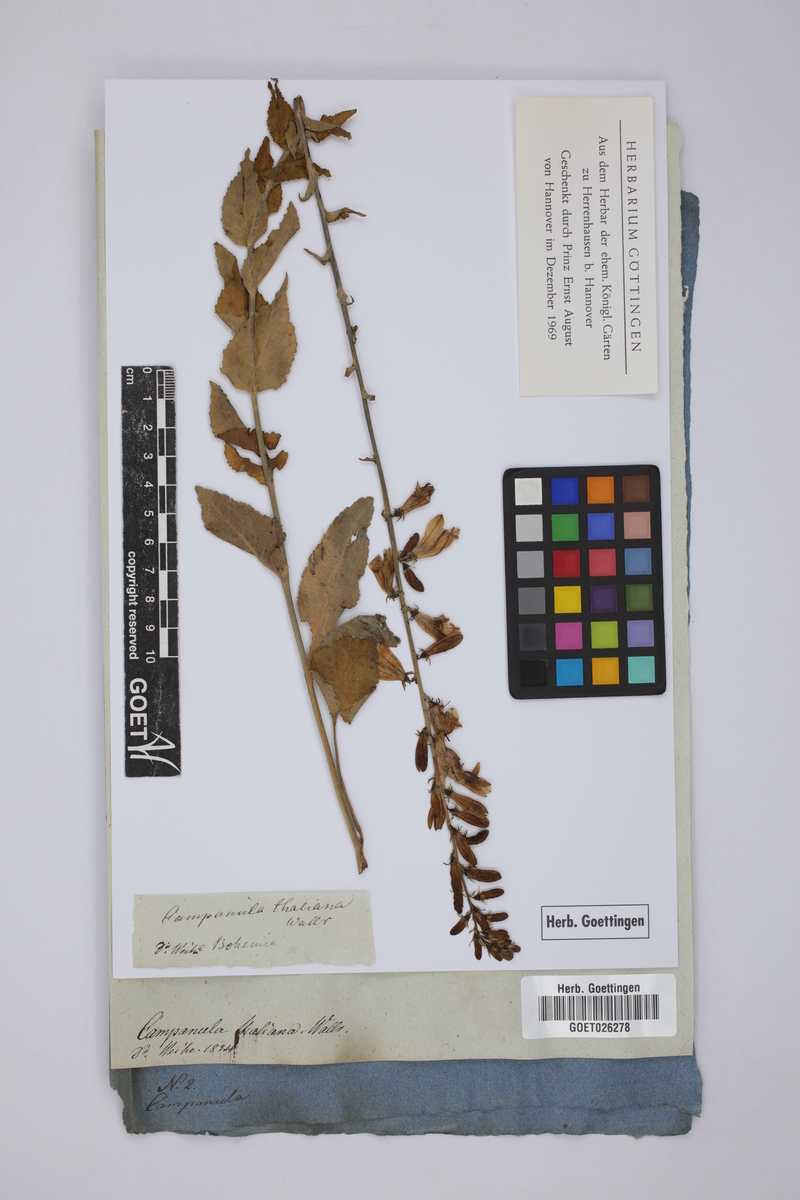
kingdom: Plantae
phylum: Tracheophyta
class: Magnoliopsida
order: Asterales
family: Campanulaceae
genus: Campanula
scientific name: Campanula bononiensis
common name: Pale bellflower
